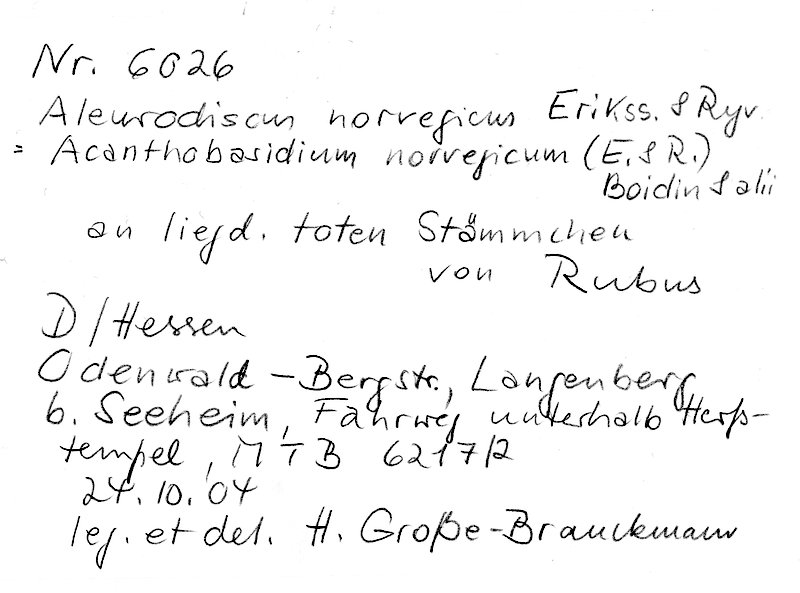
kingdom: Fungi
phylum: Basidiomycota
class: Agaricomycetes
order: Russulales
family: Stereaceae
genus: Acanthobasidium
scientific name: Acanthobasidium norvegicum
